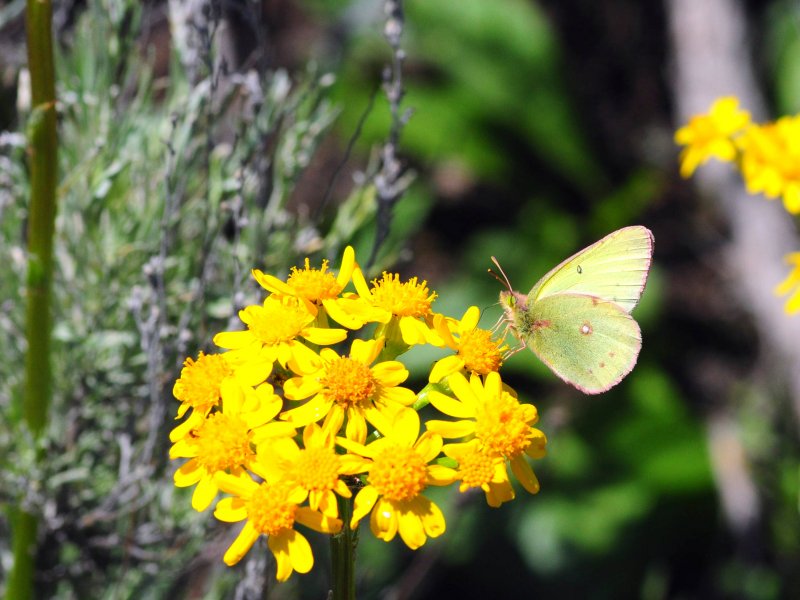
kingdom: Animalia
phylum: Arthropoda
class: Insecta
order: Lepidoptera
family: Pieridae
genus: Colias
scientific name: Colias philodice
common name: Clouded Sulphur
